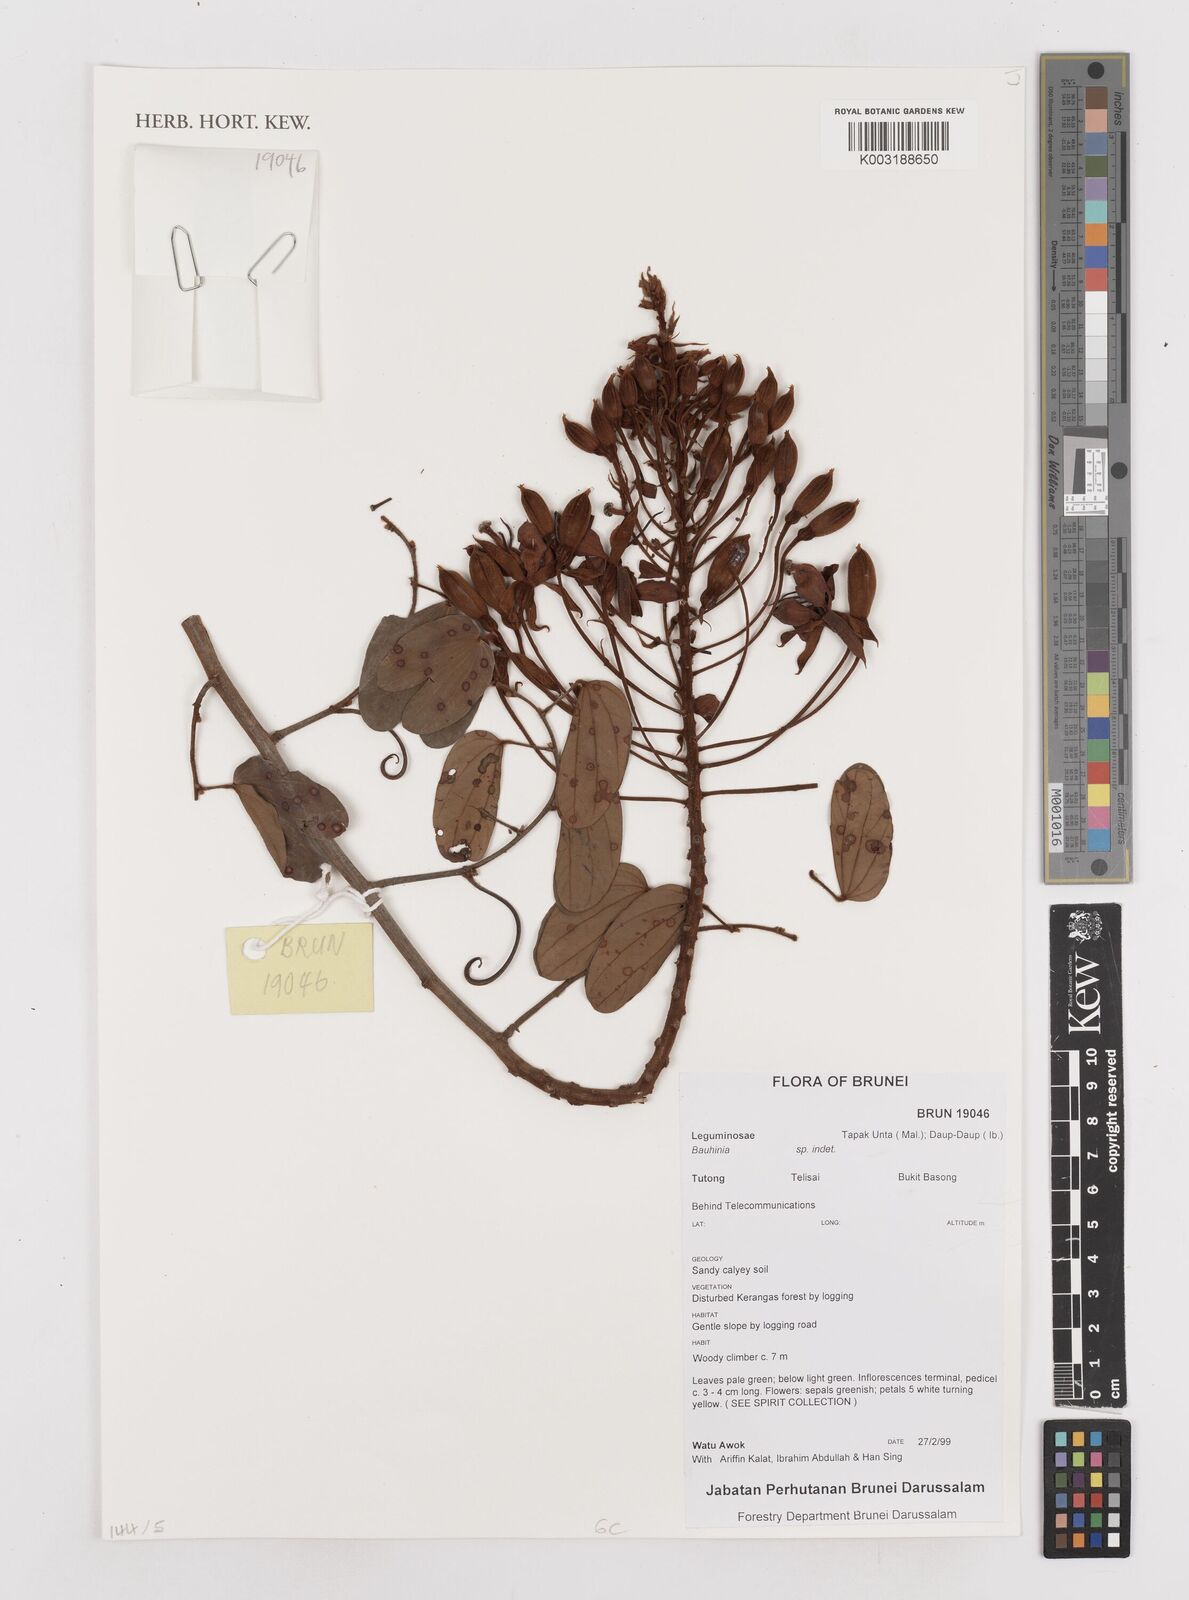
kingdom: Plantae
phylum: Tracheophyta
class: Magnoliopsida
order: Fabales
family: Fabaceae
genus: Bauhinia
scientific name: Bauhinia
